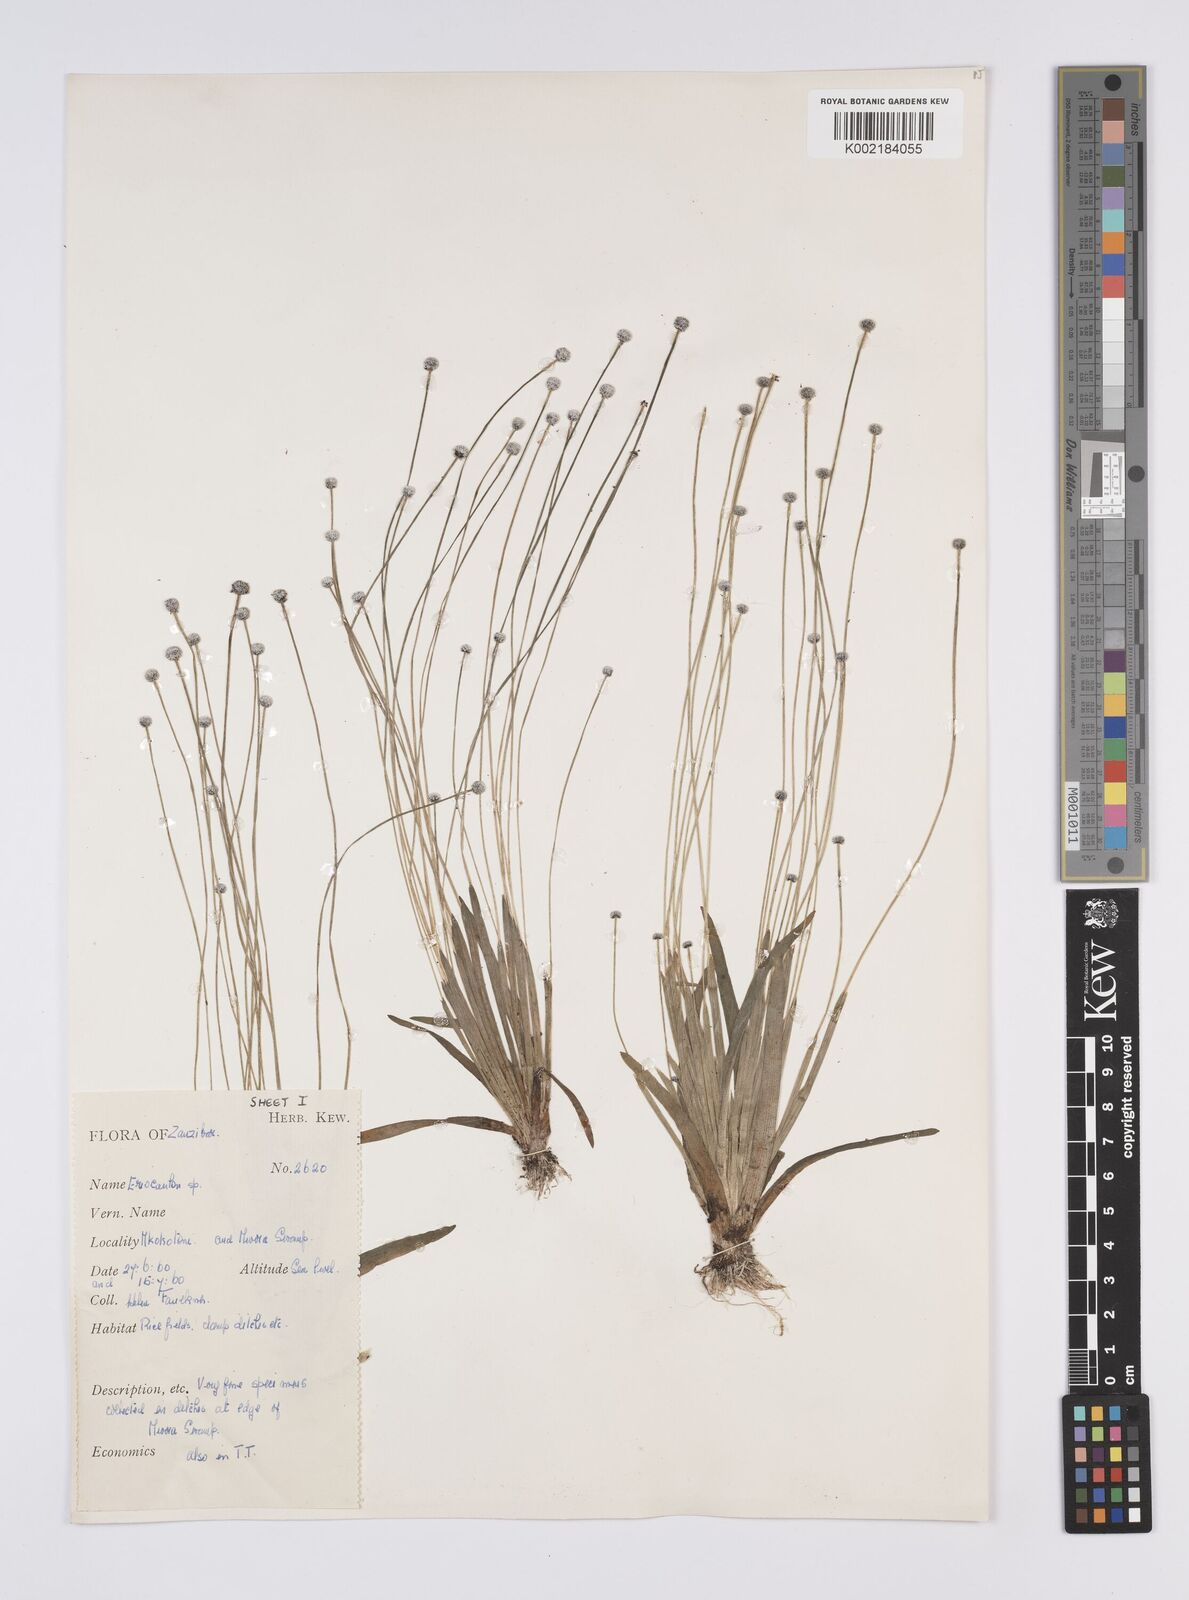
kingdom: Plantae
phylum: Tracheophyta
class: Liliopsida
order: Poales
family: Eriocaulaceae
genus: Eriocaulon
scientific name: Eriocaulon
